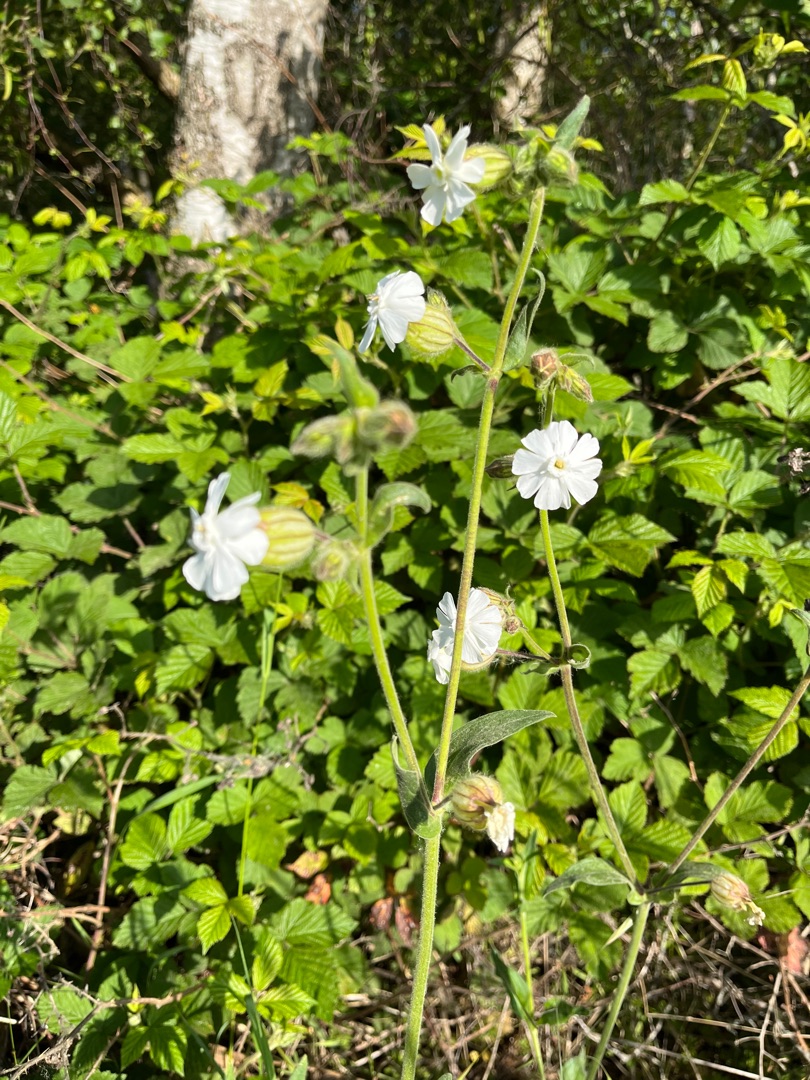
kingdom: Plantae
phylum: Tracheophyta
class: Magnoliopsida
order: Caryophyllales
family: Caryophyllaceae
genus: Silene
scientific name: Silene latifolia
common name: Aftenpragtstjerne
